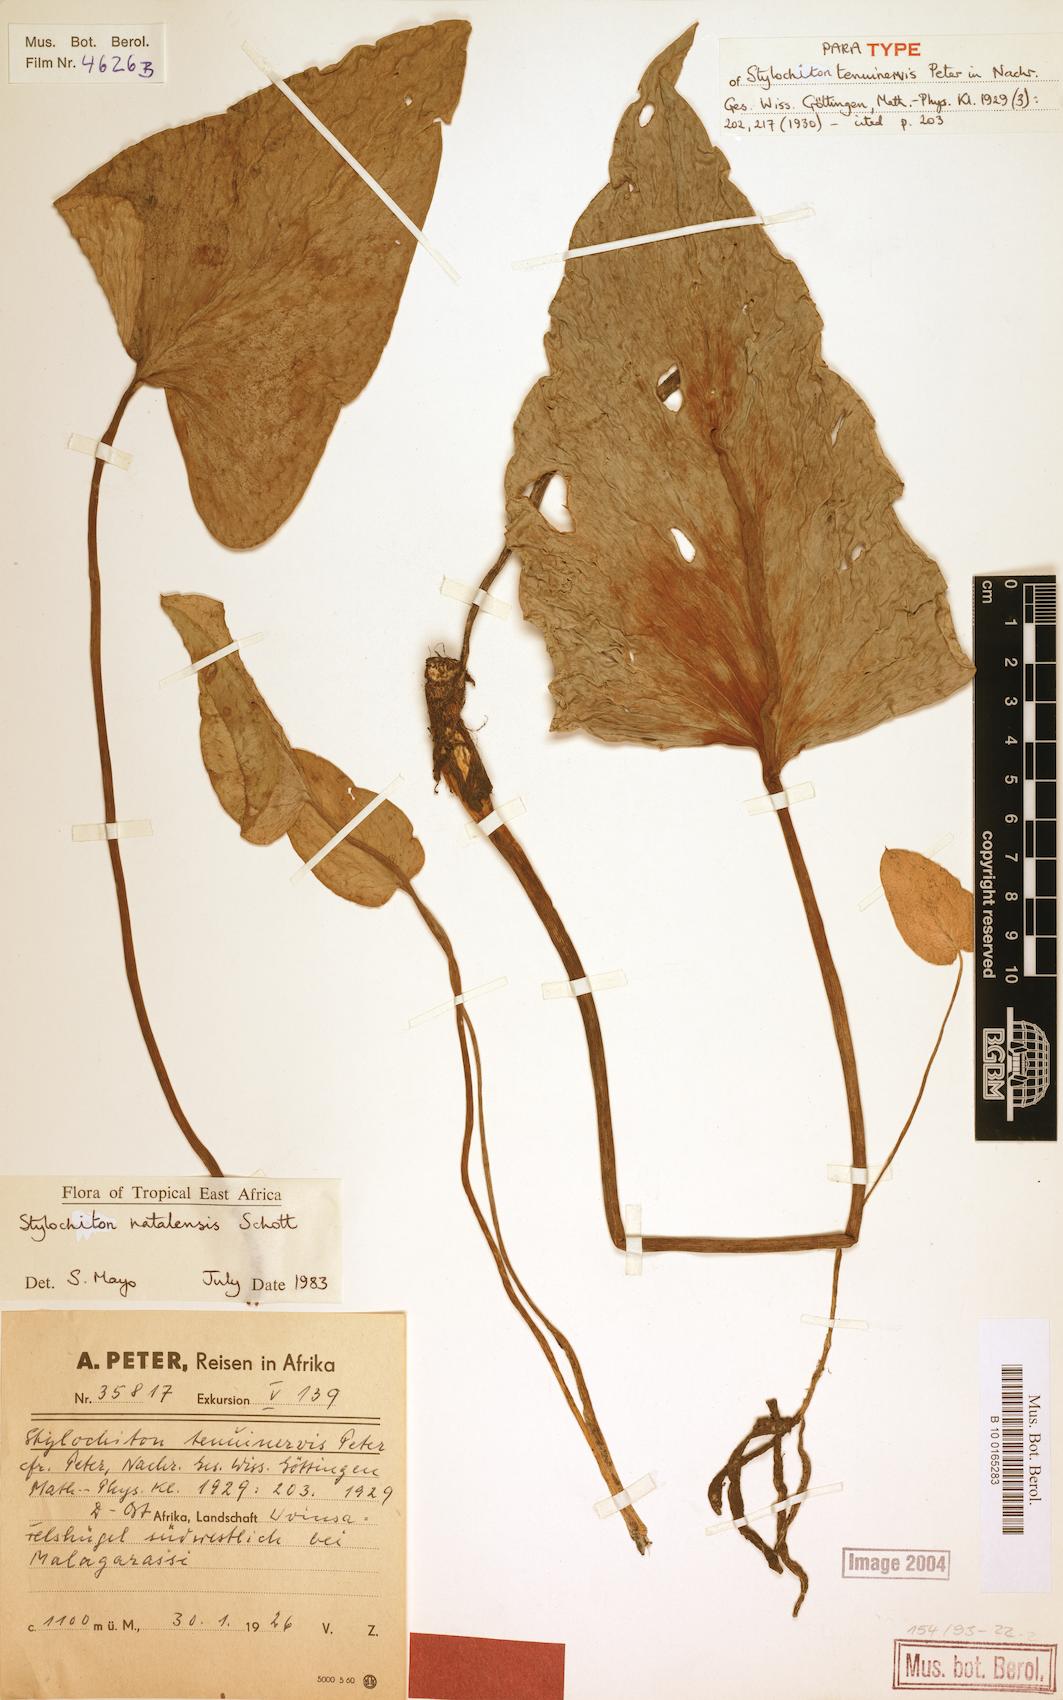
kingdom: Plantae
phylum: Tracheophyta
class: Liliopsida
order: Alismatales
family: Araceae
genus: Stylochiton
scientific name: Stylochiton natalensis
